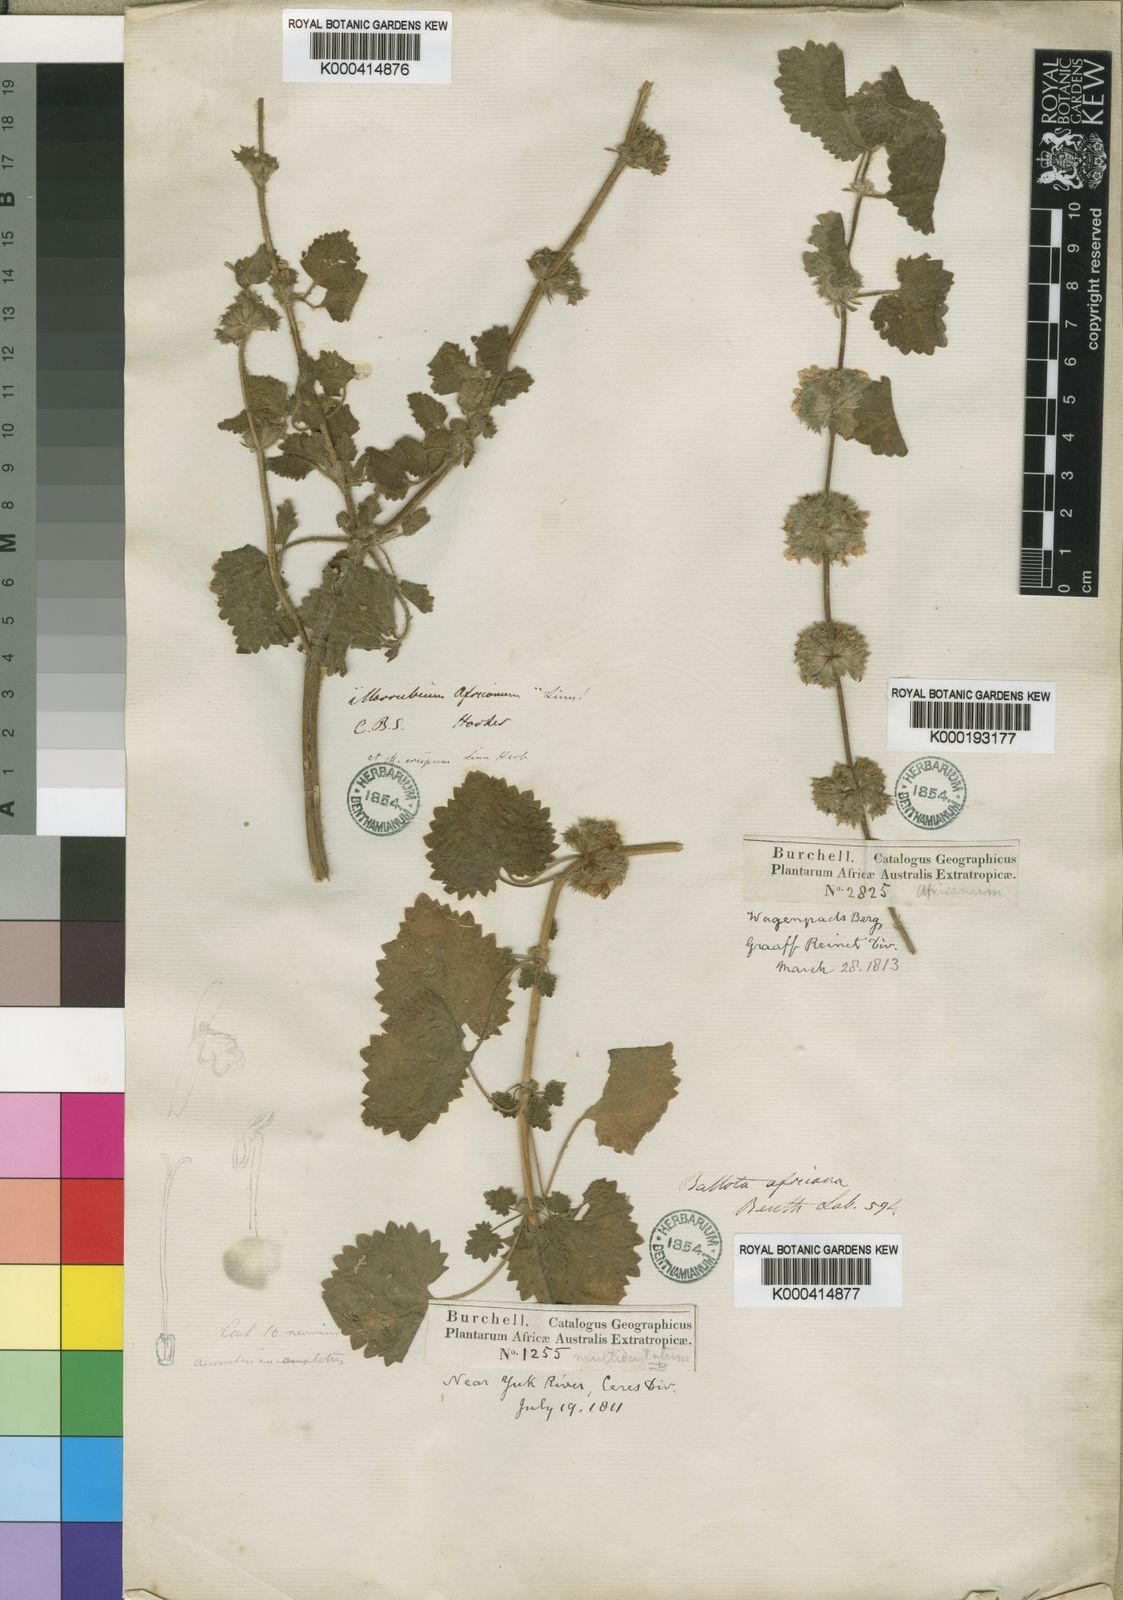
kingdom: Plantae
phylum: Tracheophyta
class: Magnoliopsida
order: Lamiales
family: Lamiaceae
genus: Pseudodictamnus
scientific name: Pseudodictamnus africanus
